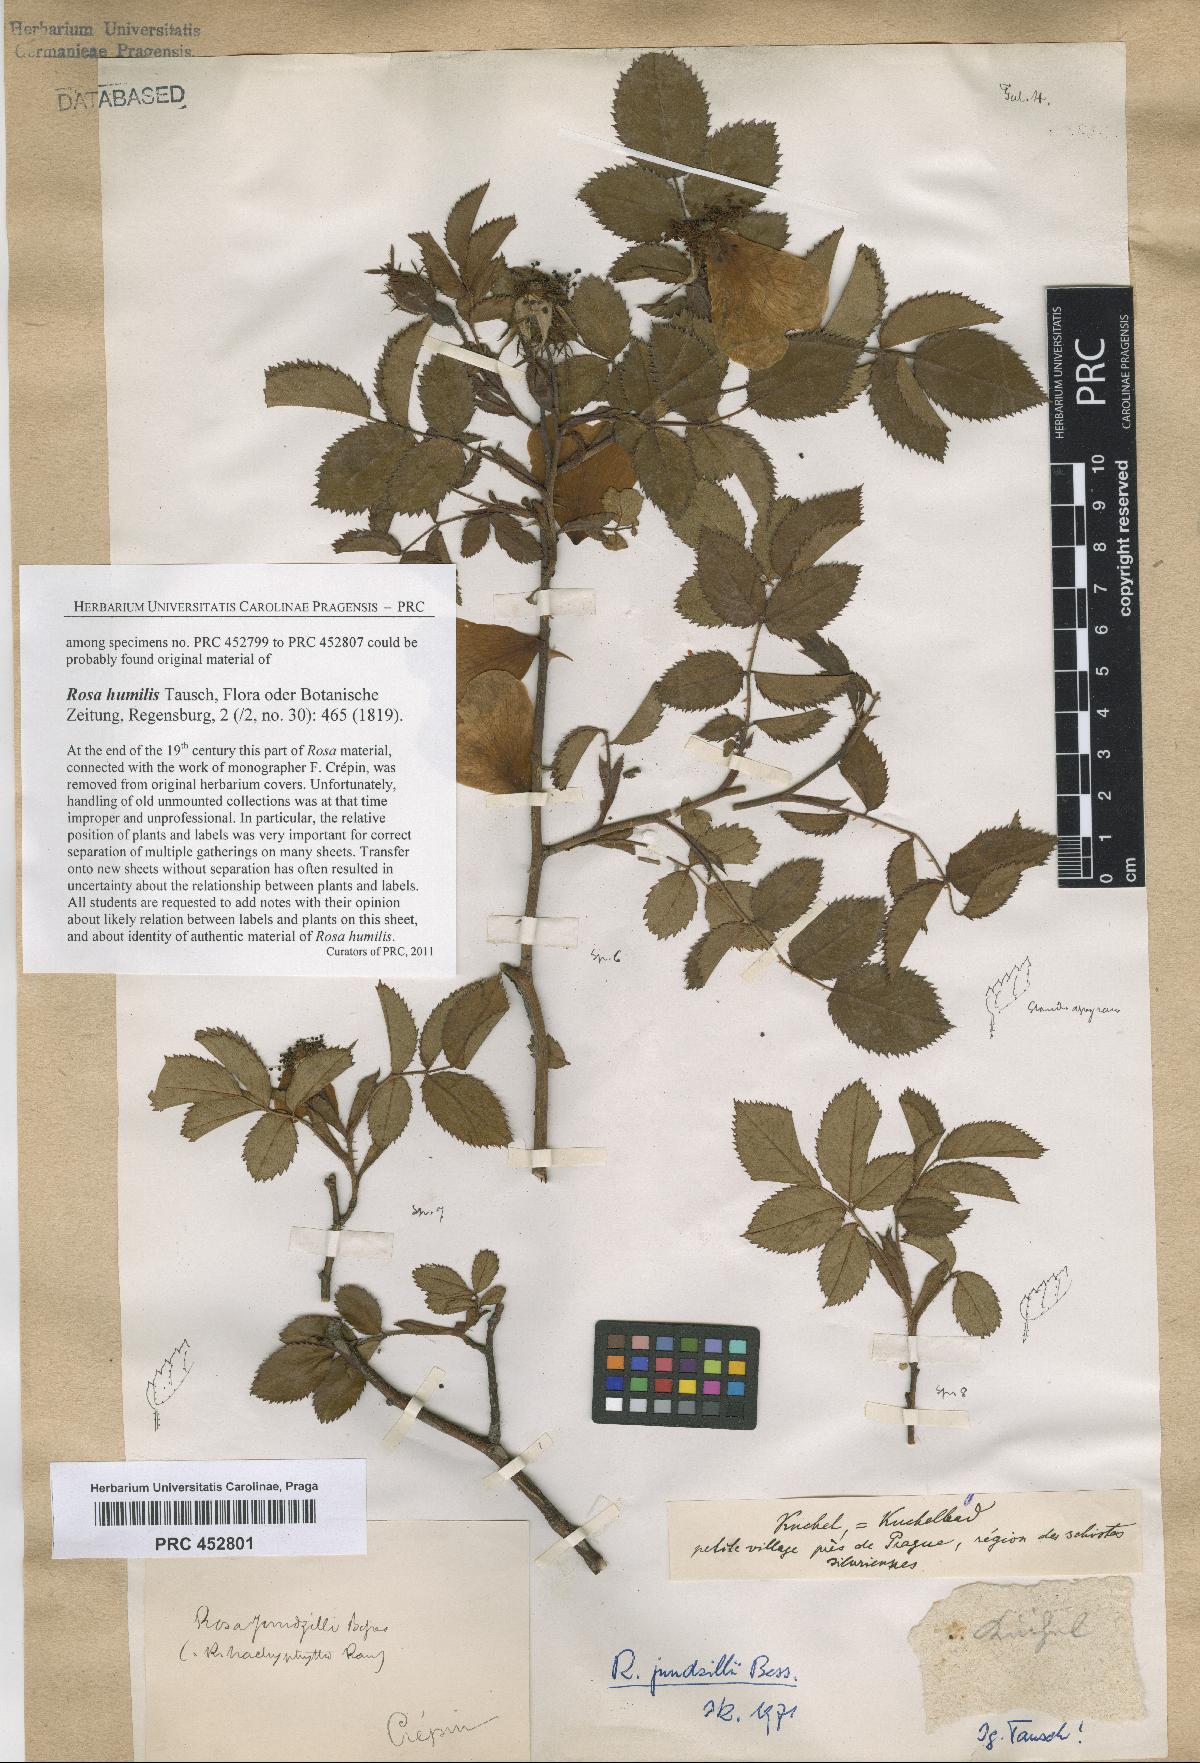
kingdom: Plantae
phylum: Tracheophyta
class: Magnoliopsida
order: Rosales
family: Rosaceae
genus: Rosa
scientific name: Rosa marginata
